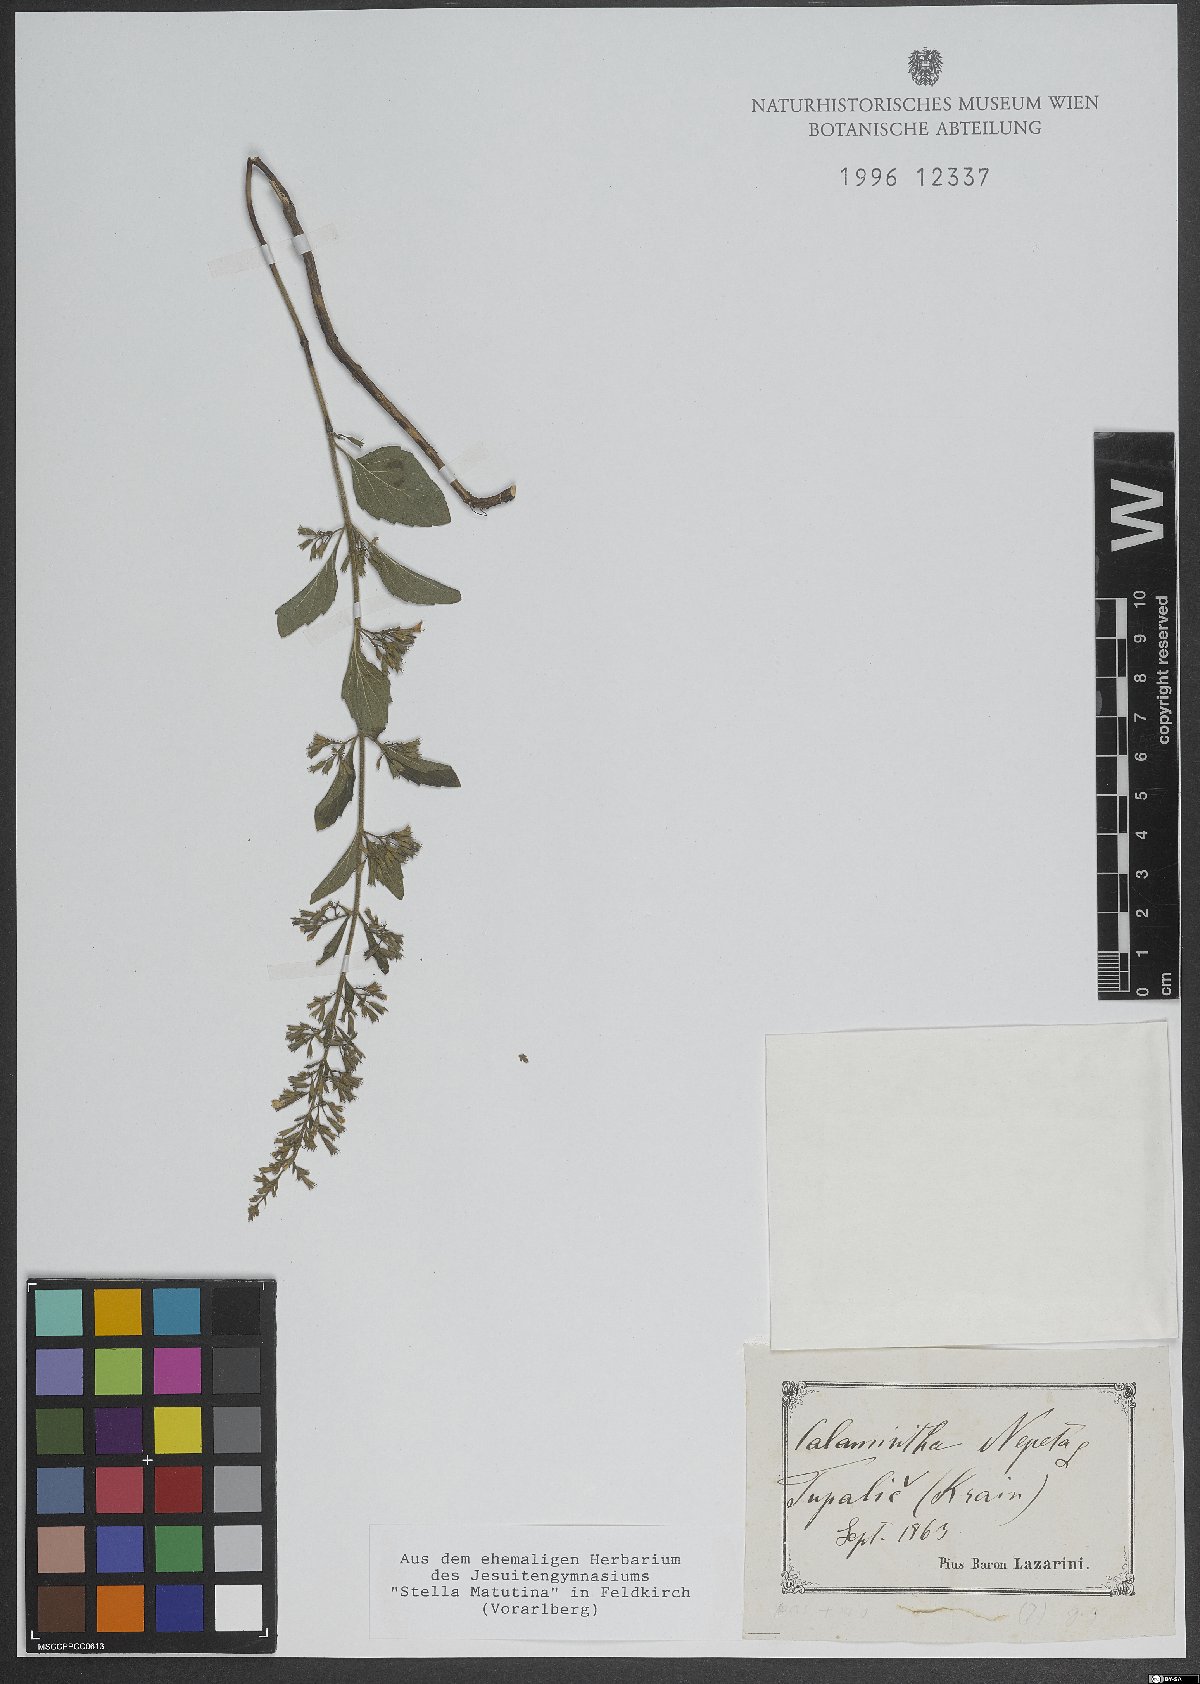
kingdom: Plantae
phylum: Tracheophyta
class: Magnoliopsida
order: Lamiales
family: Lamiaceae
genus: Clinopodium
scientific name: Clinopodium nepeta
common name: Lesser calamint
